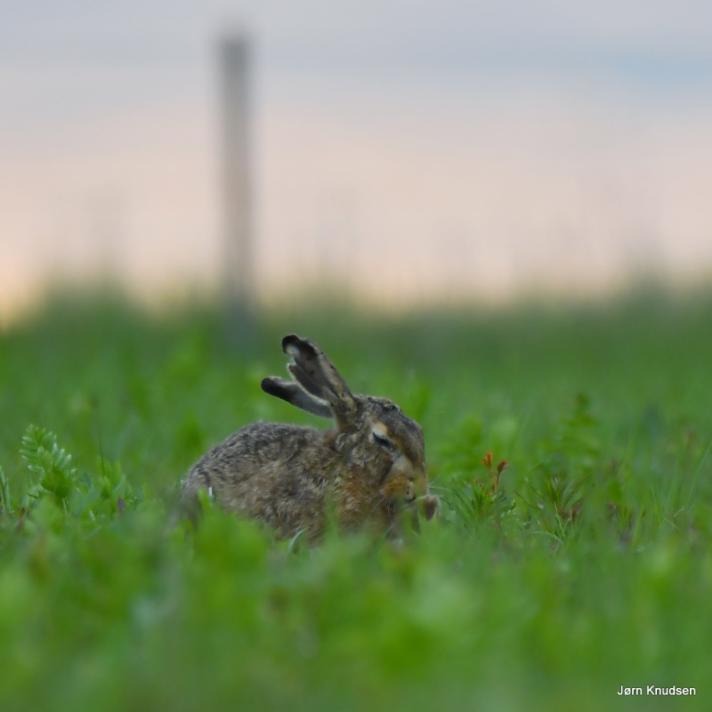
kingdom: Animalia
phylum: Chordata
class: Mammalia
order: Lagomorpha
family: Leporidae
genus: Lepus
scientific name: Lepus europaeus
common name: Hare
